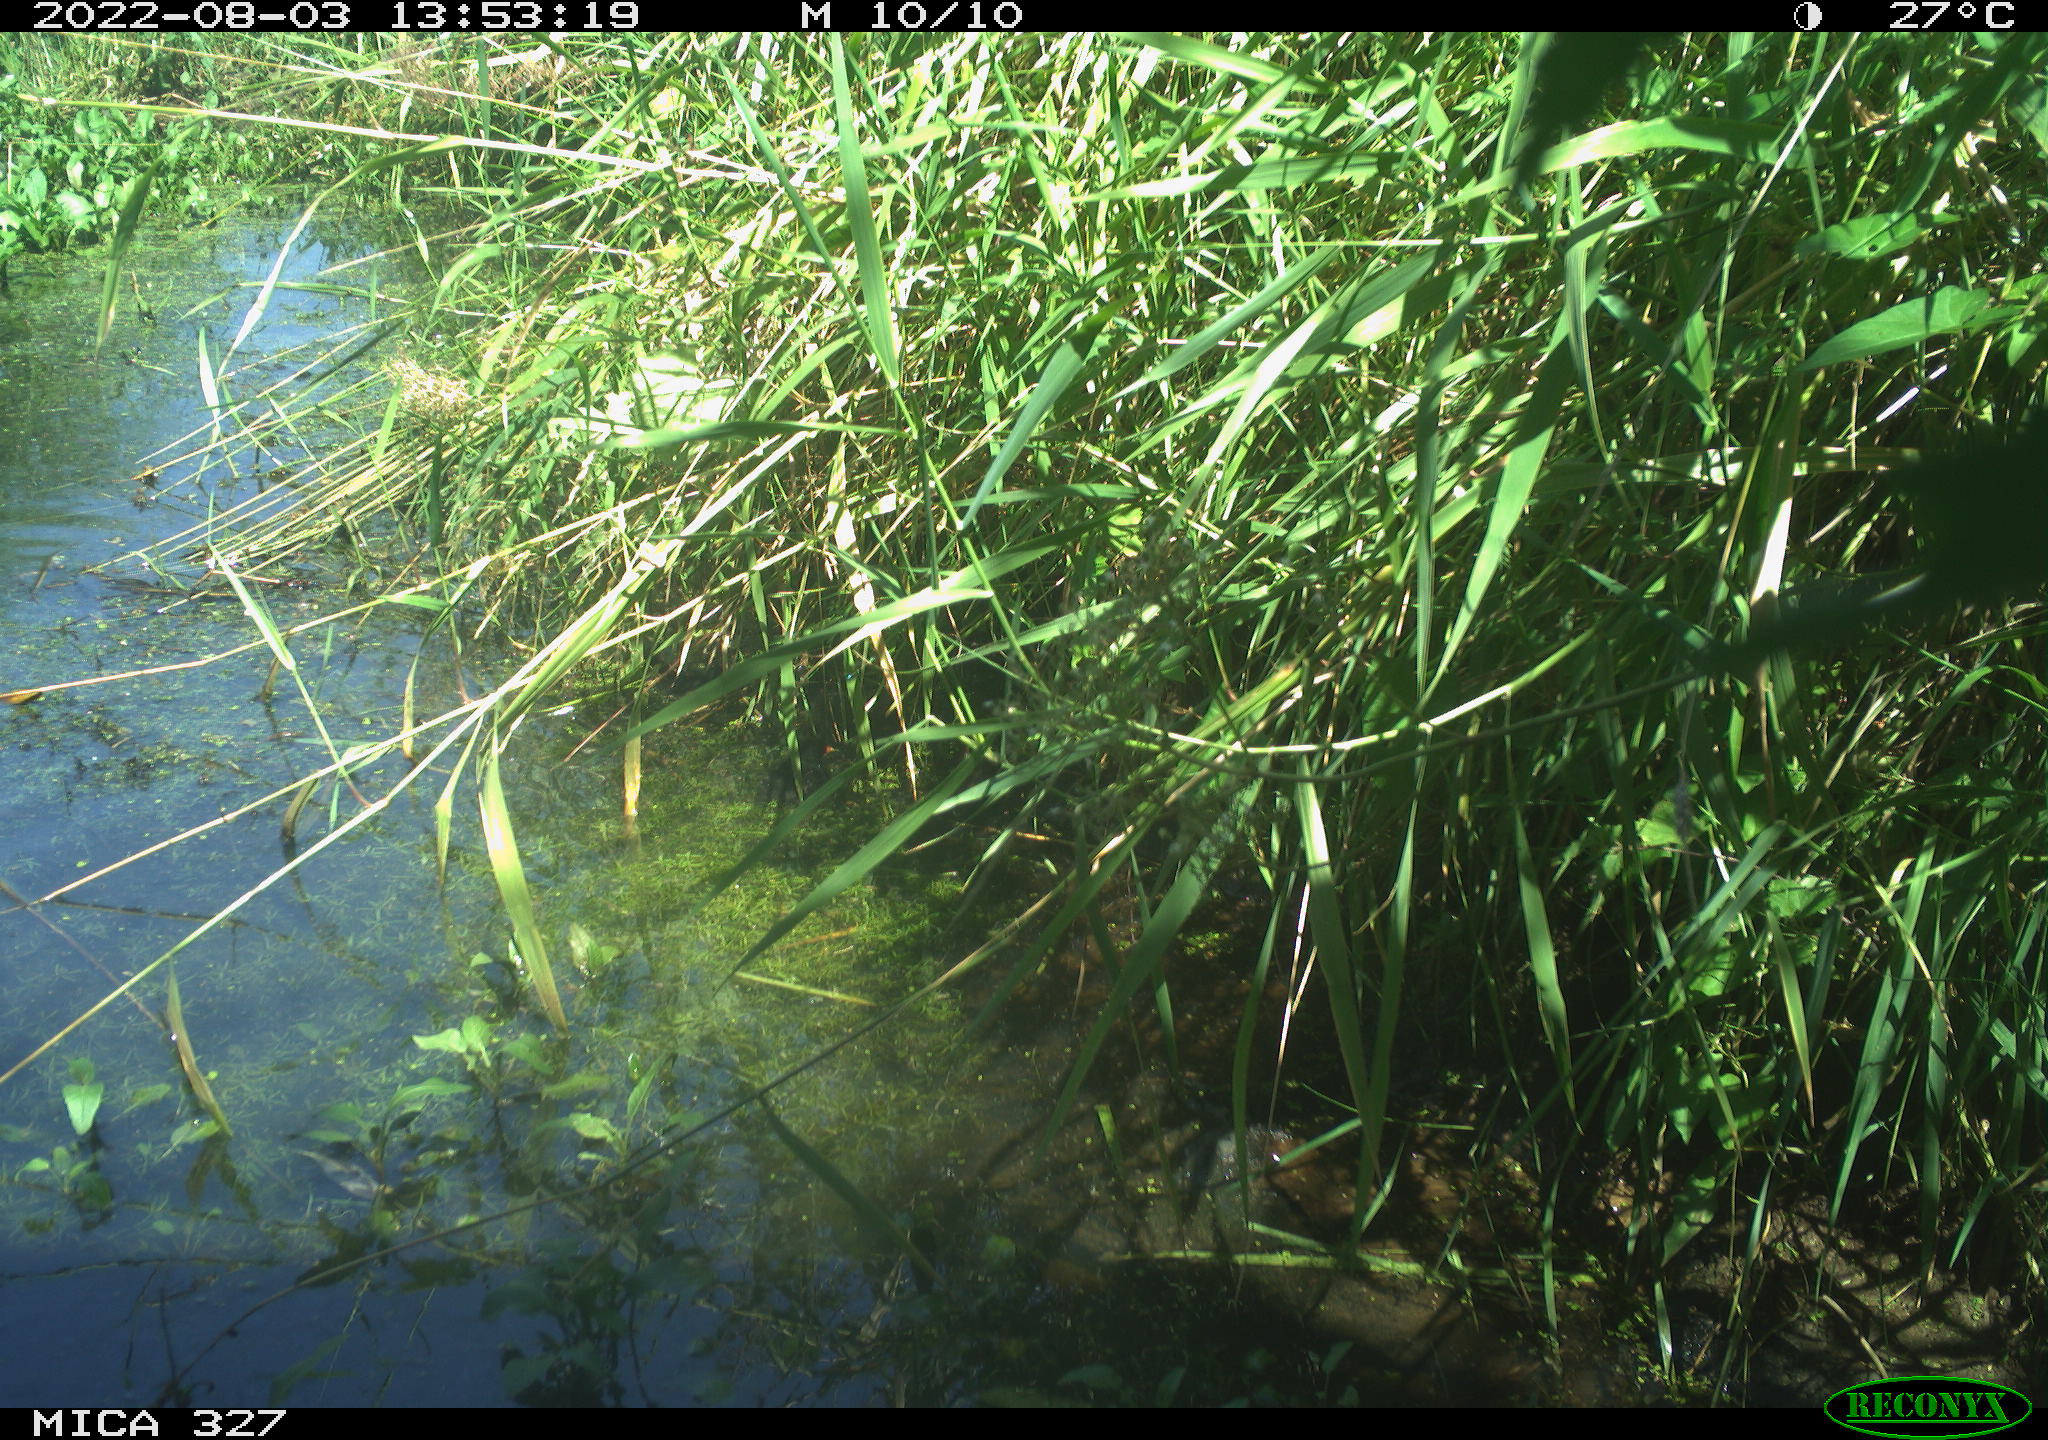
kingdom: Animalia
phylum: Chordata
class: Aves
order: Gruiformes
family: Rallidae
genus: Gallinula
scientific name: Gallinula chloropus
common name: Common moorhen
